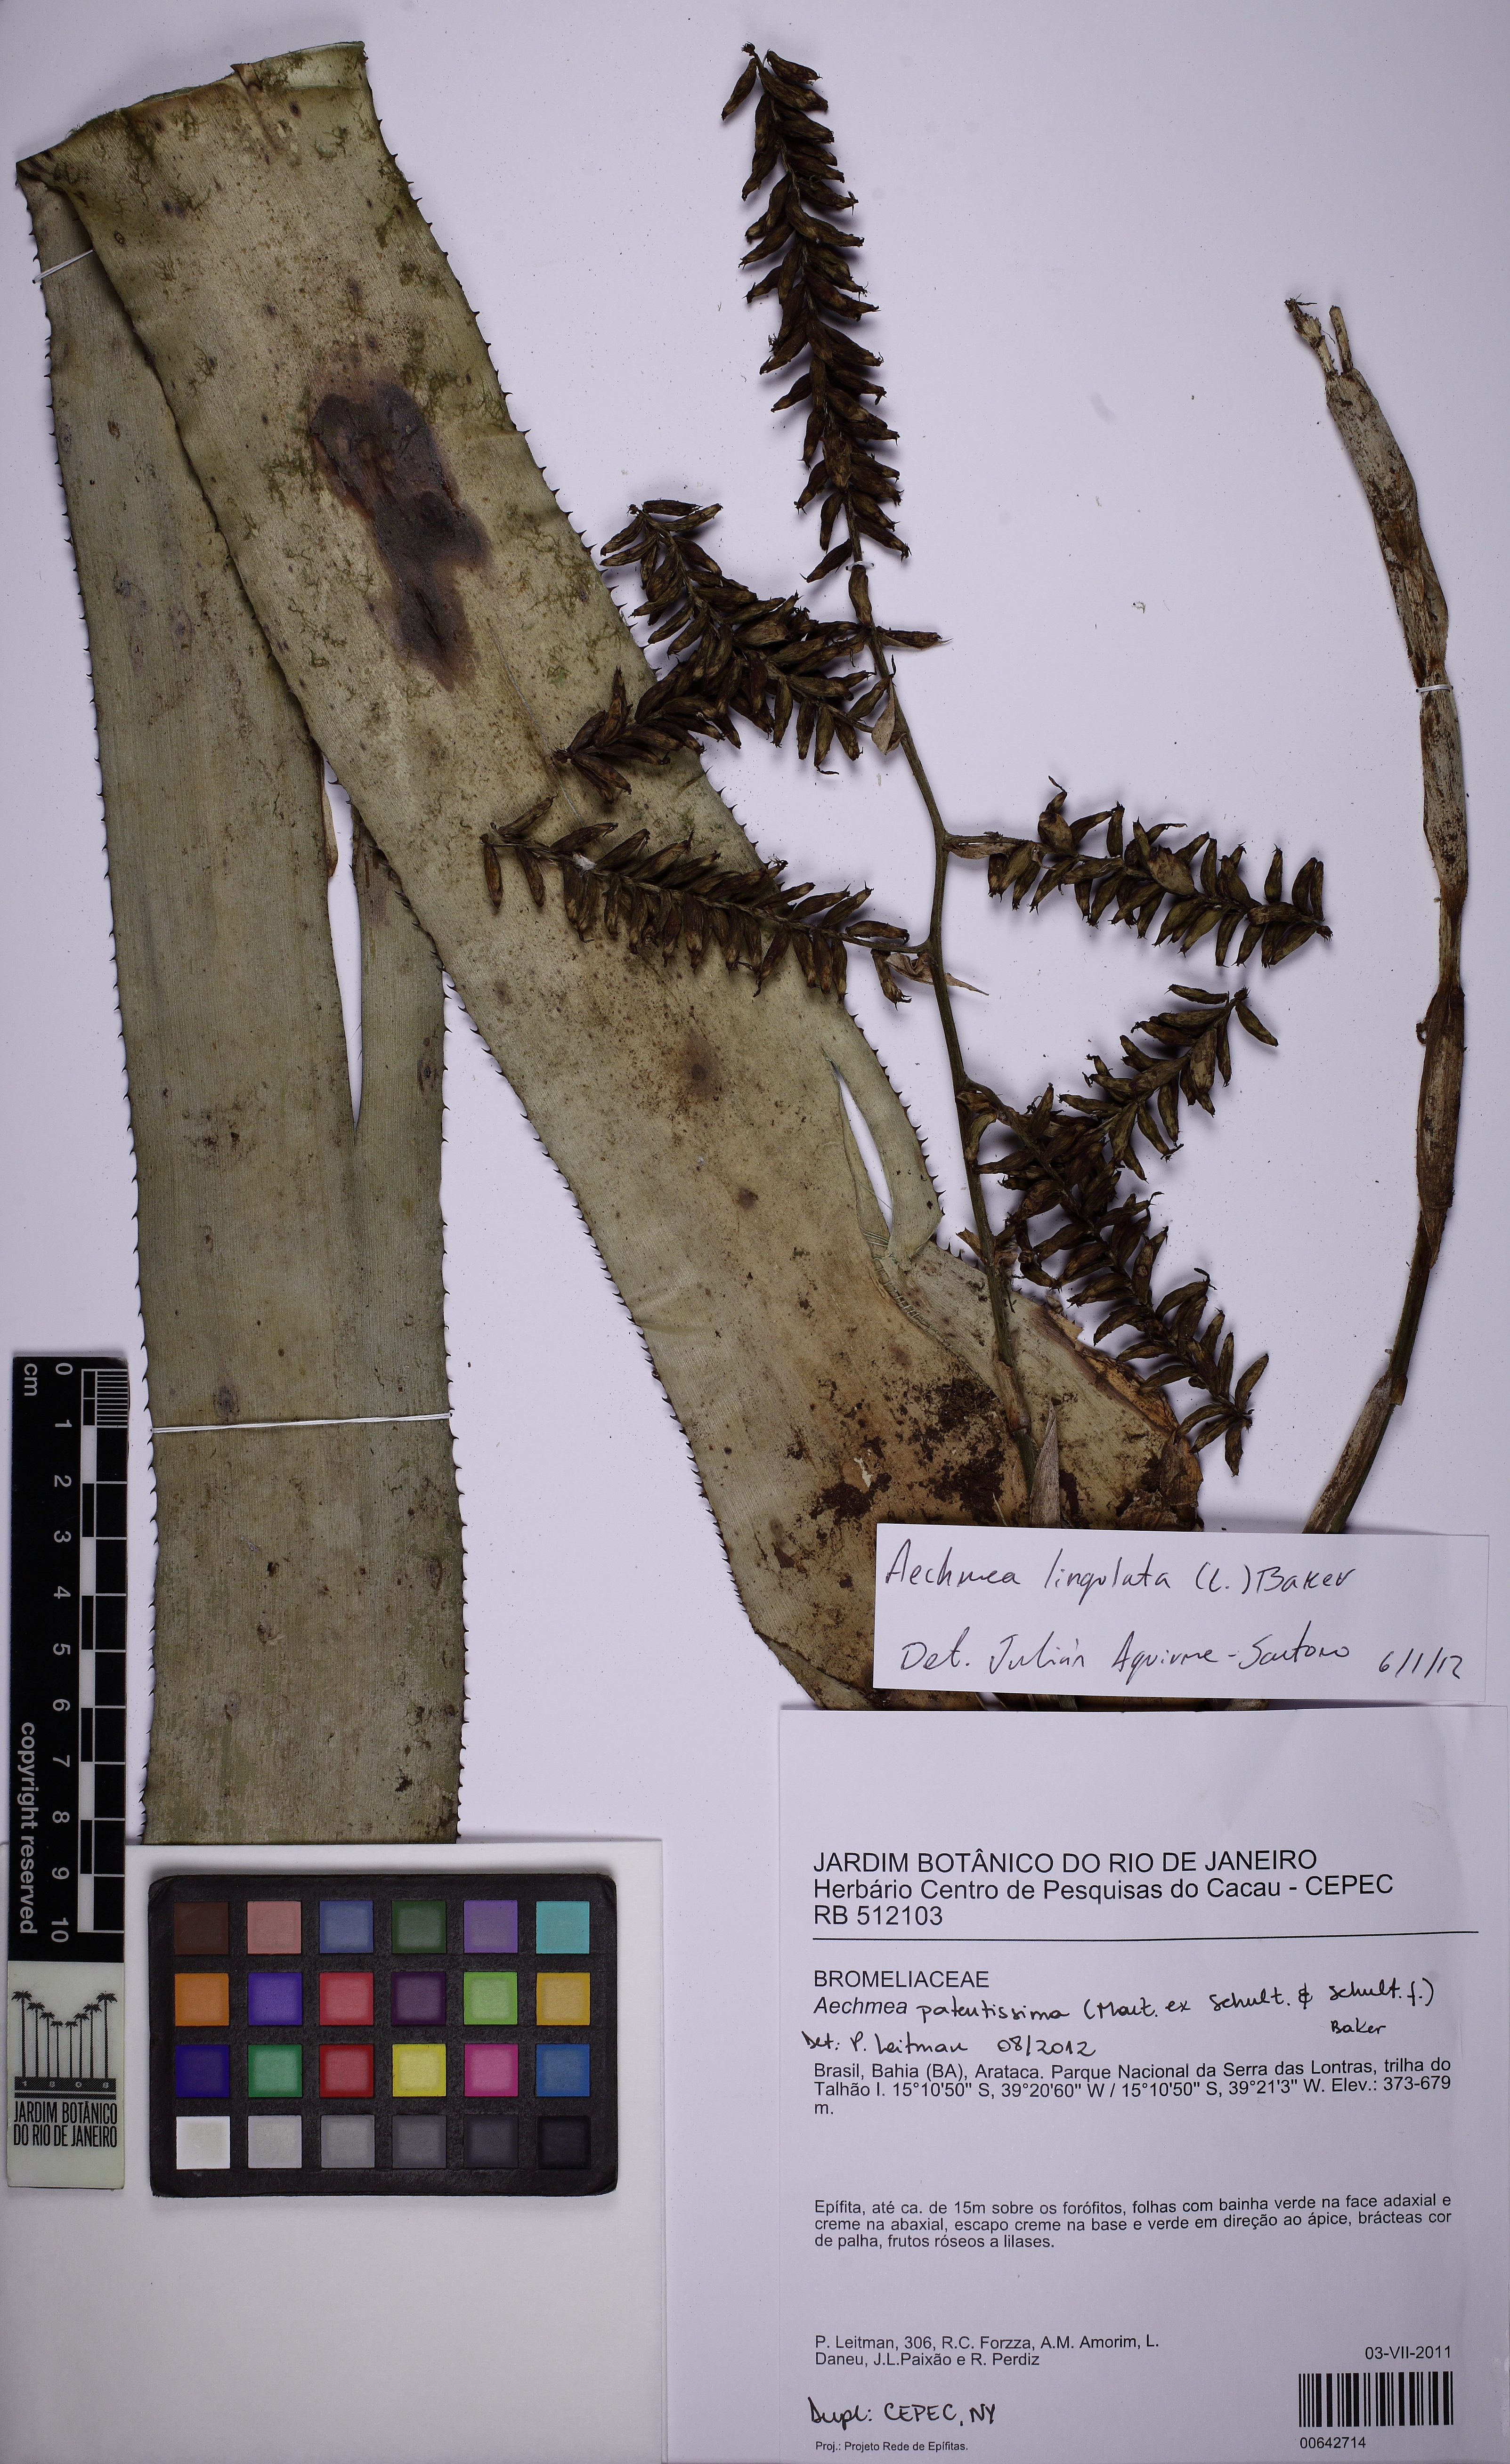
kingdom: Plantae
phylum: Tracheophyta
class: Liliopsida
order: Poales
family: Bromeliaceae
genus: Wittmackia
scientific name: Wittmackia patentissima
